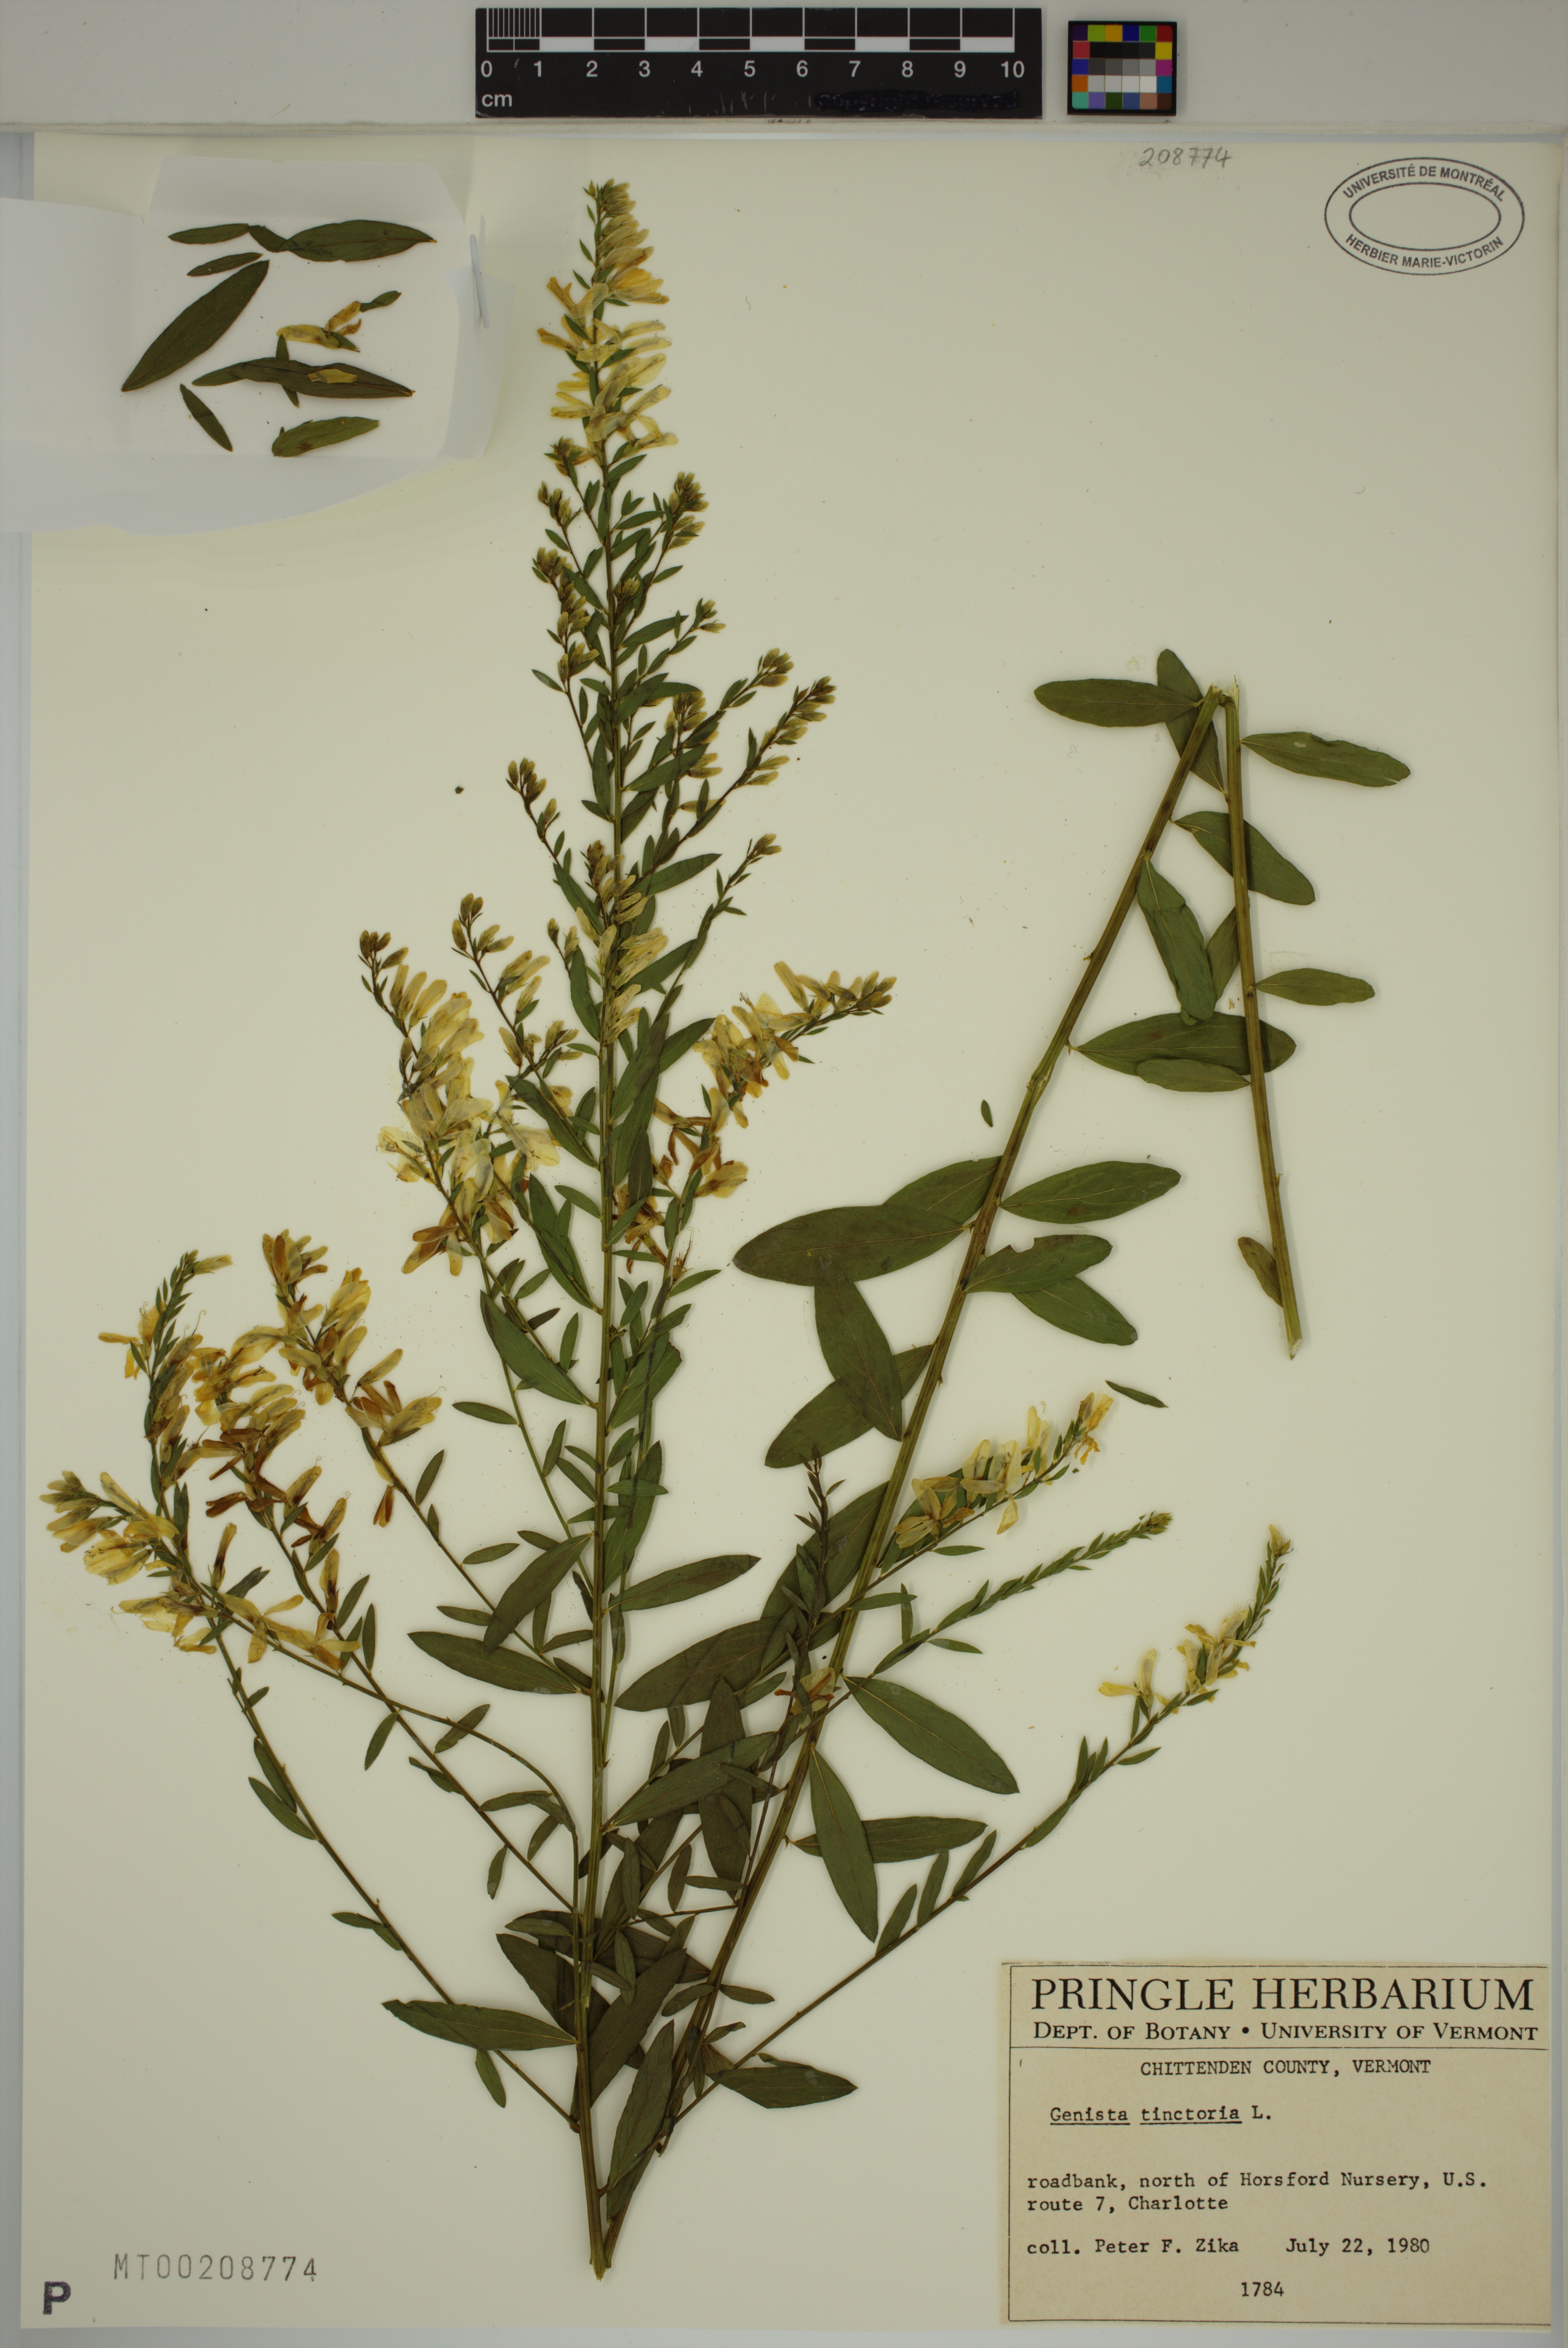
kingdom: Plantae
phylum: Tracheophyta
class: Magnoliopsida
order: Fabales
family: Fabaceae
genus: Genista
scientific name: Genista tinctoria
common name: Dyer's greenweed
